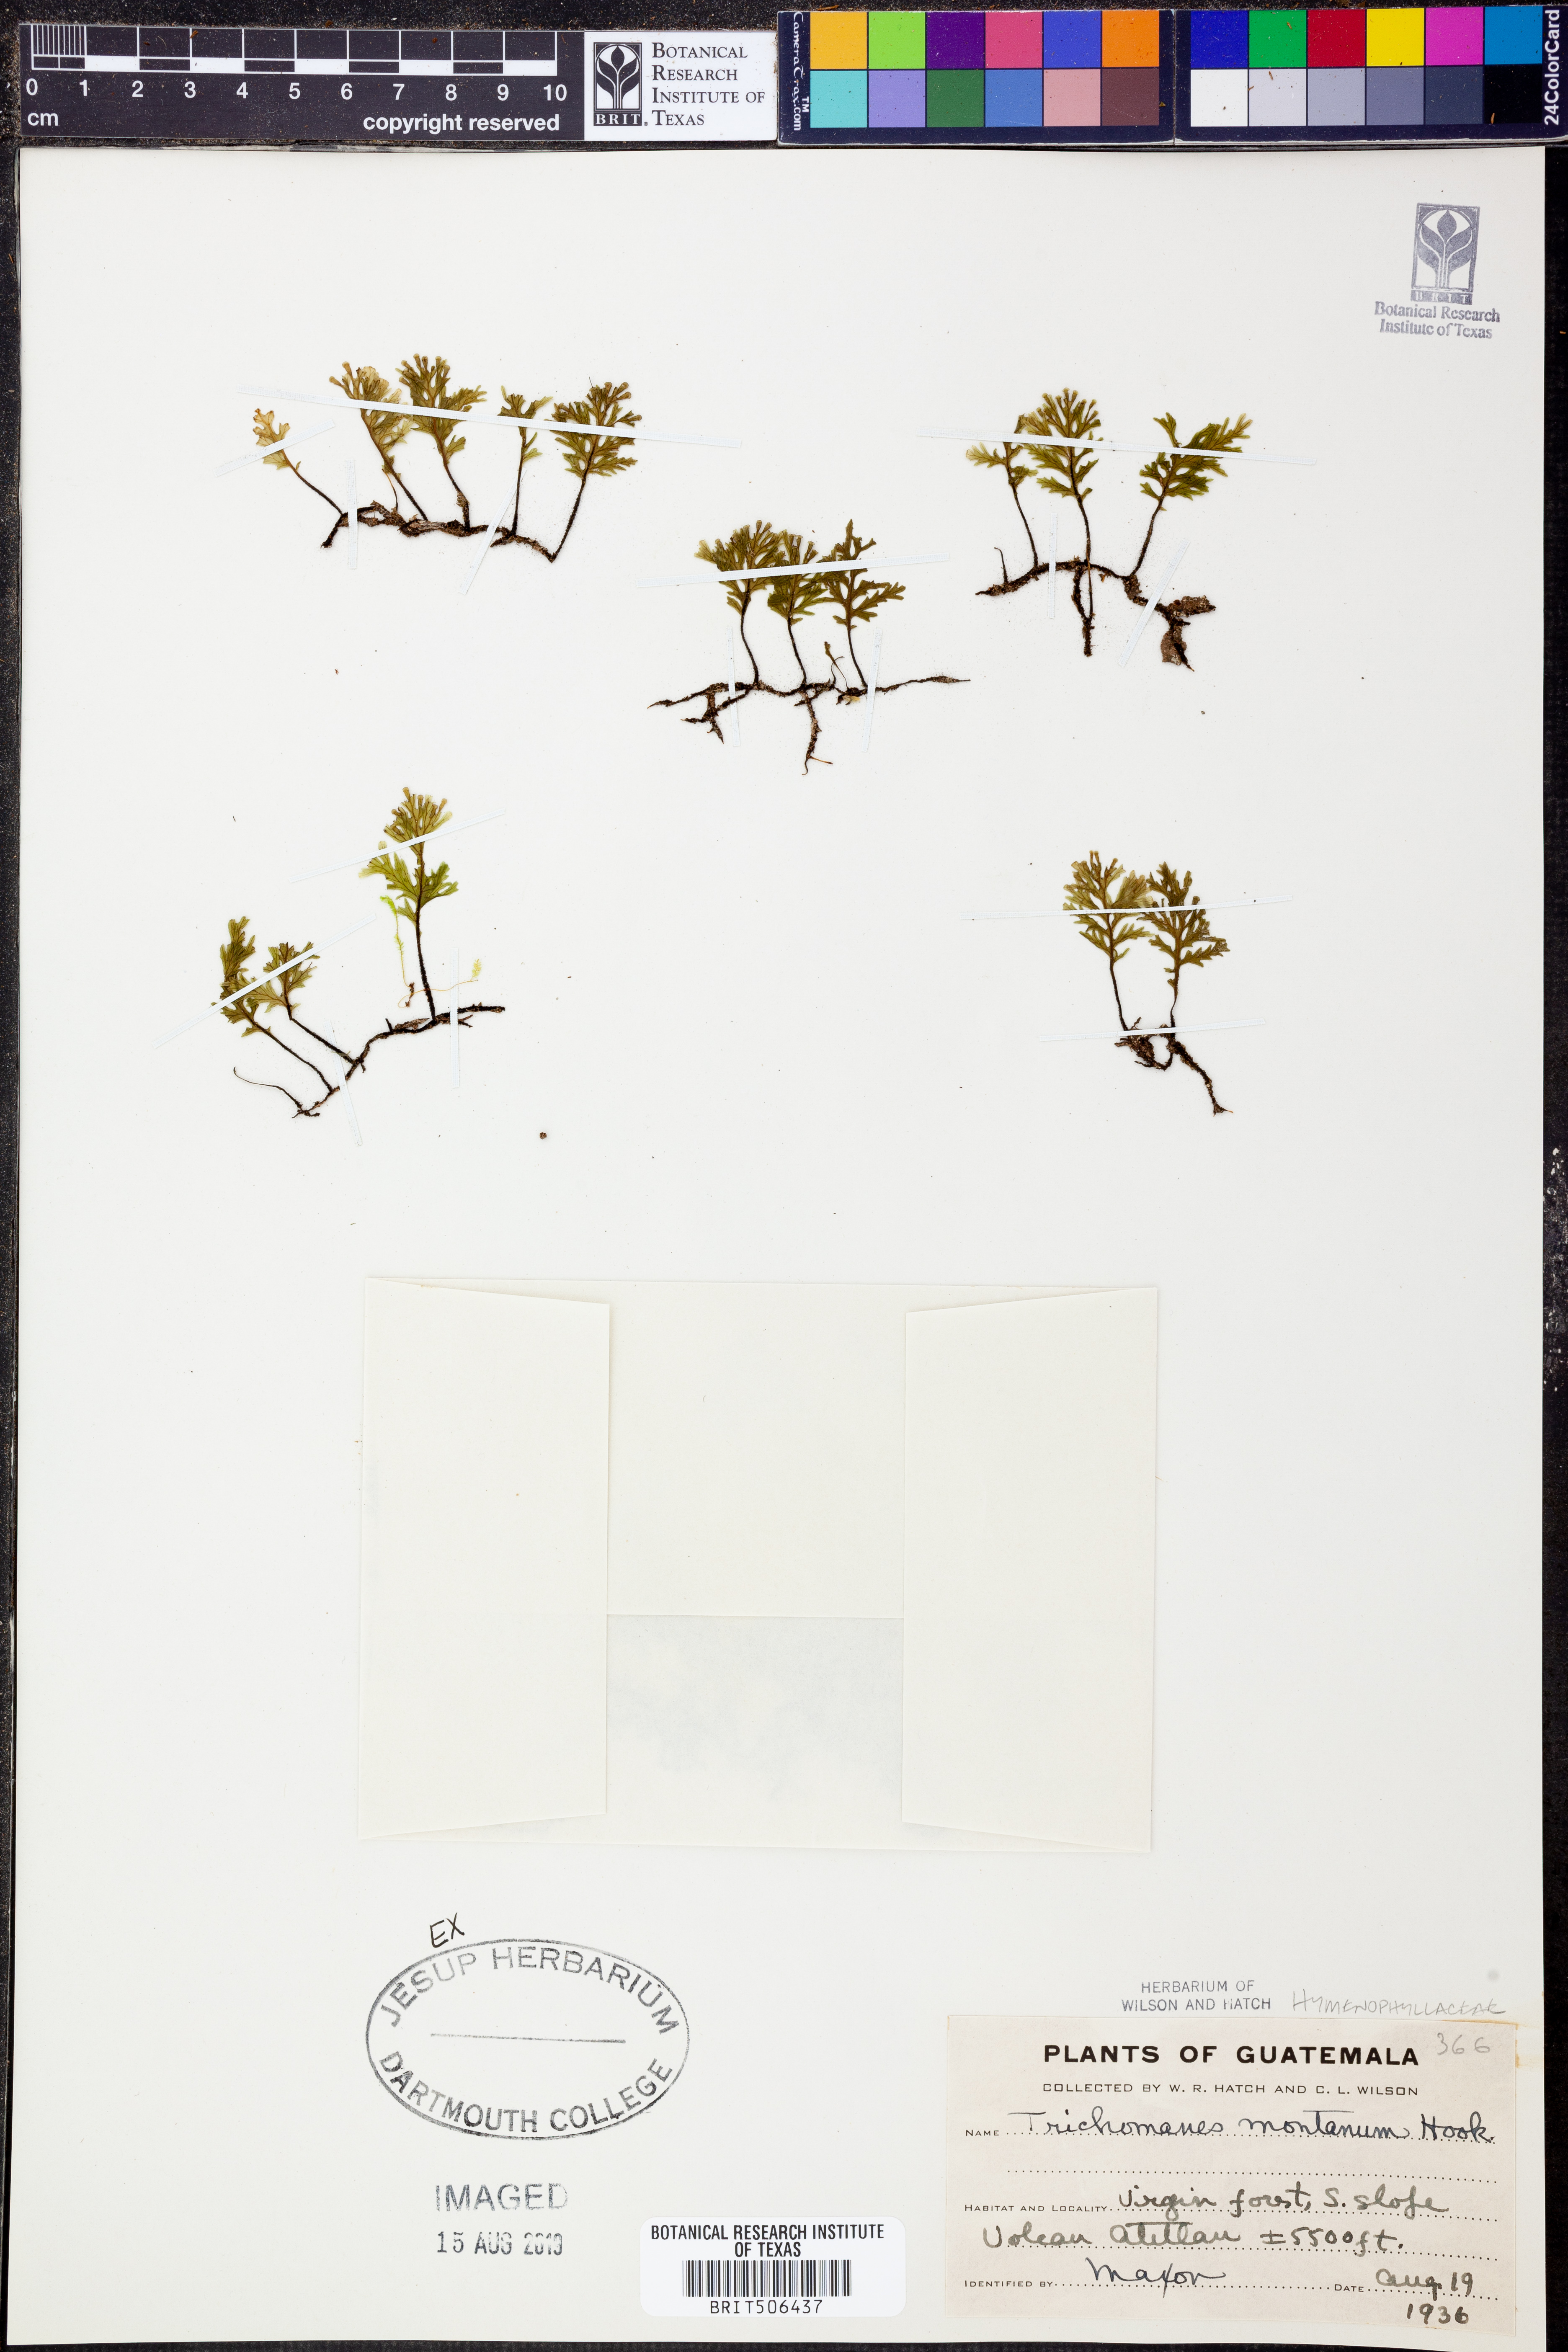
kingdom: Plantae
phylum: Tracheophyta
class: Polypodiopsida
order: Hymenophyllales
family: Hymenophyllaceae
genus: Didymoglossum
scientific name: Didymoglossum
